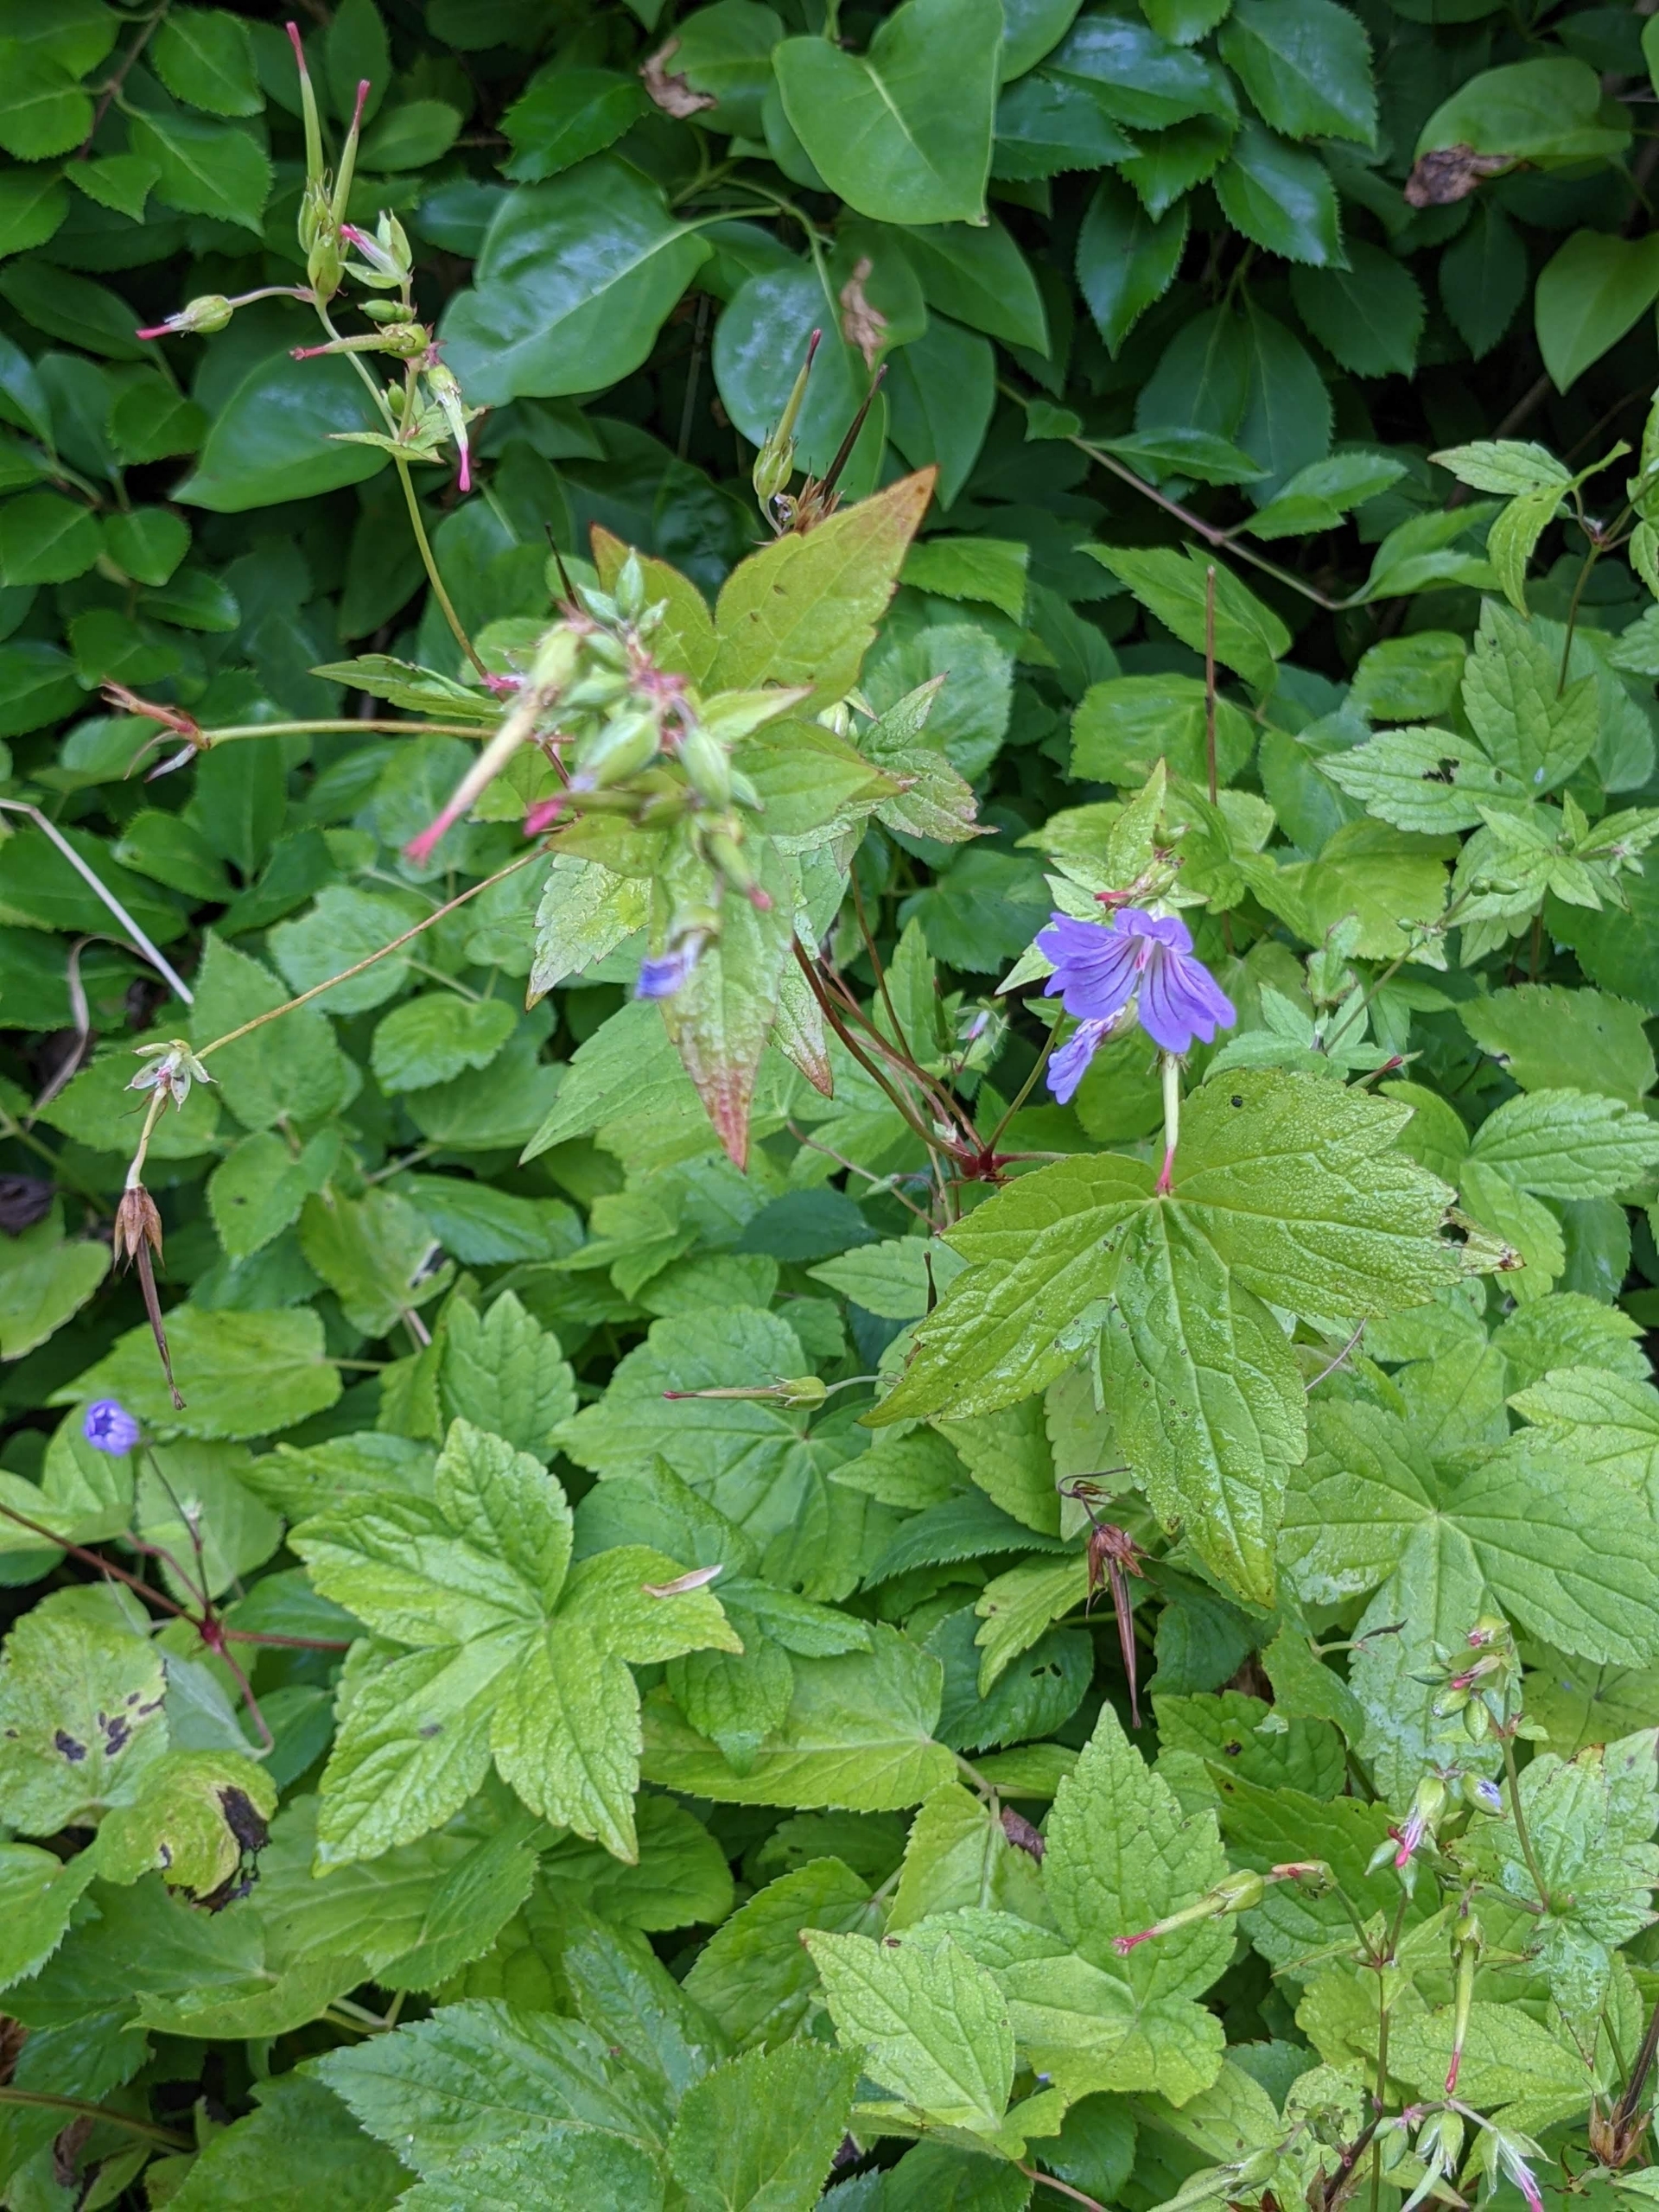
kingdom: Plantae
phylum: Tracheophyta
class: Magnoliopsida
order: Geraniales
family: Geraniaceae
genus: Geranium
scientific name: Geranium nodosum
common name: Knudret storkenæb
